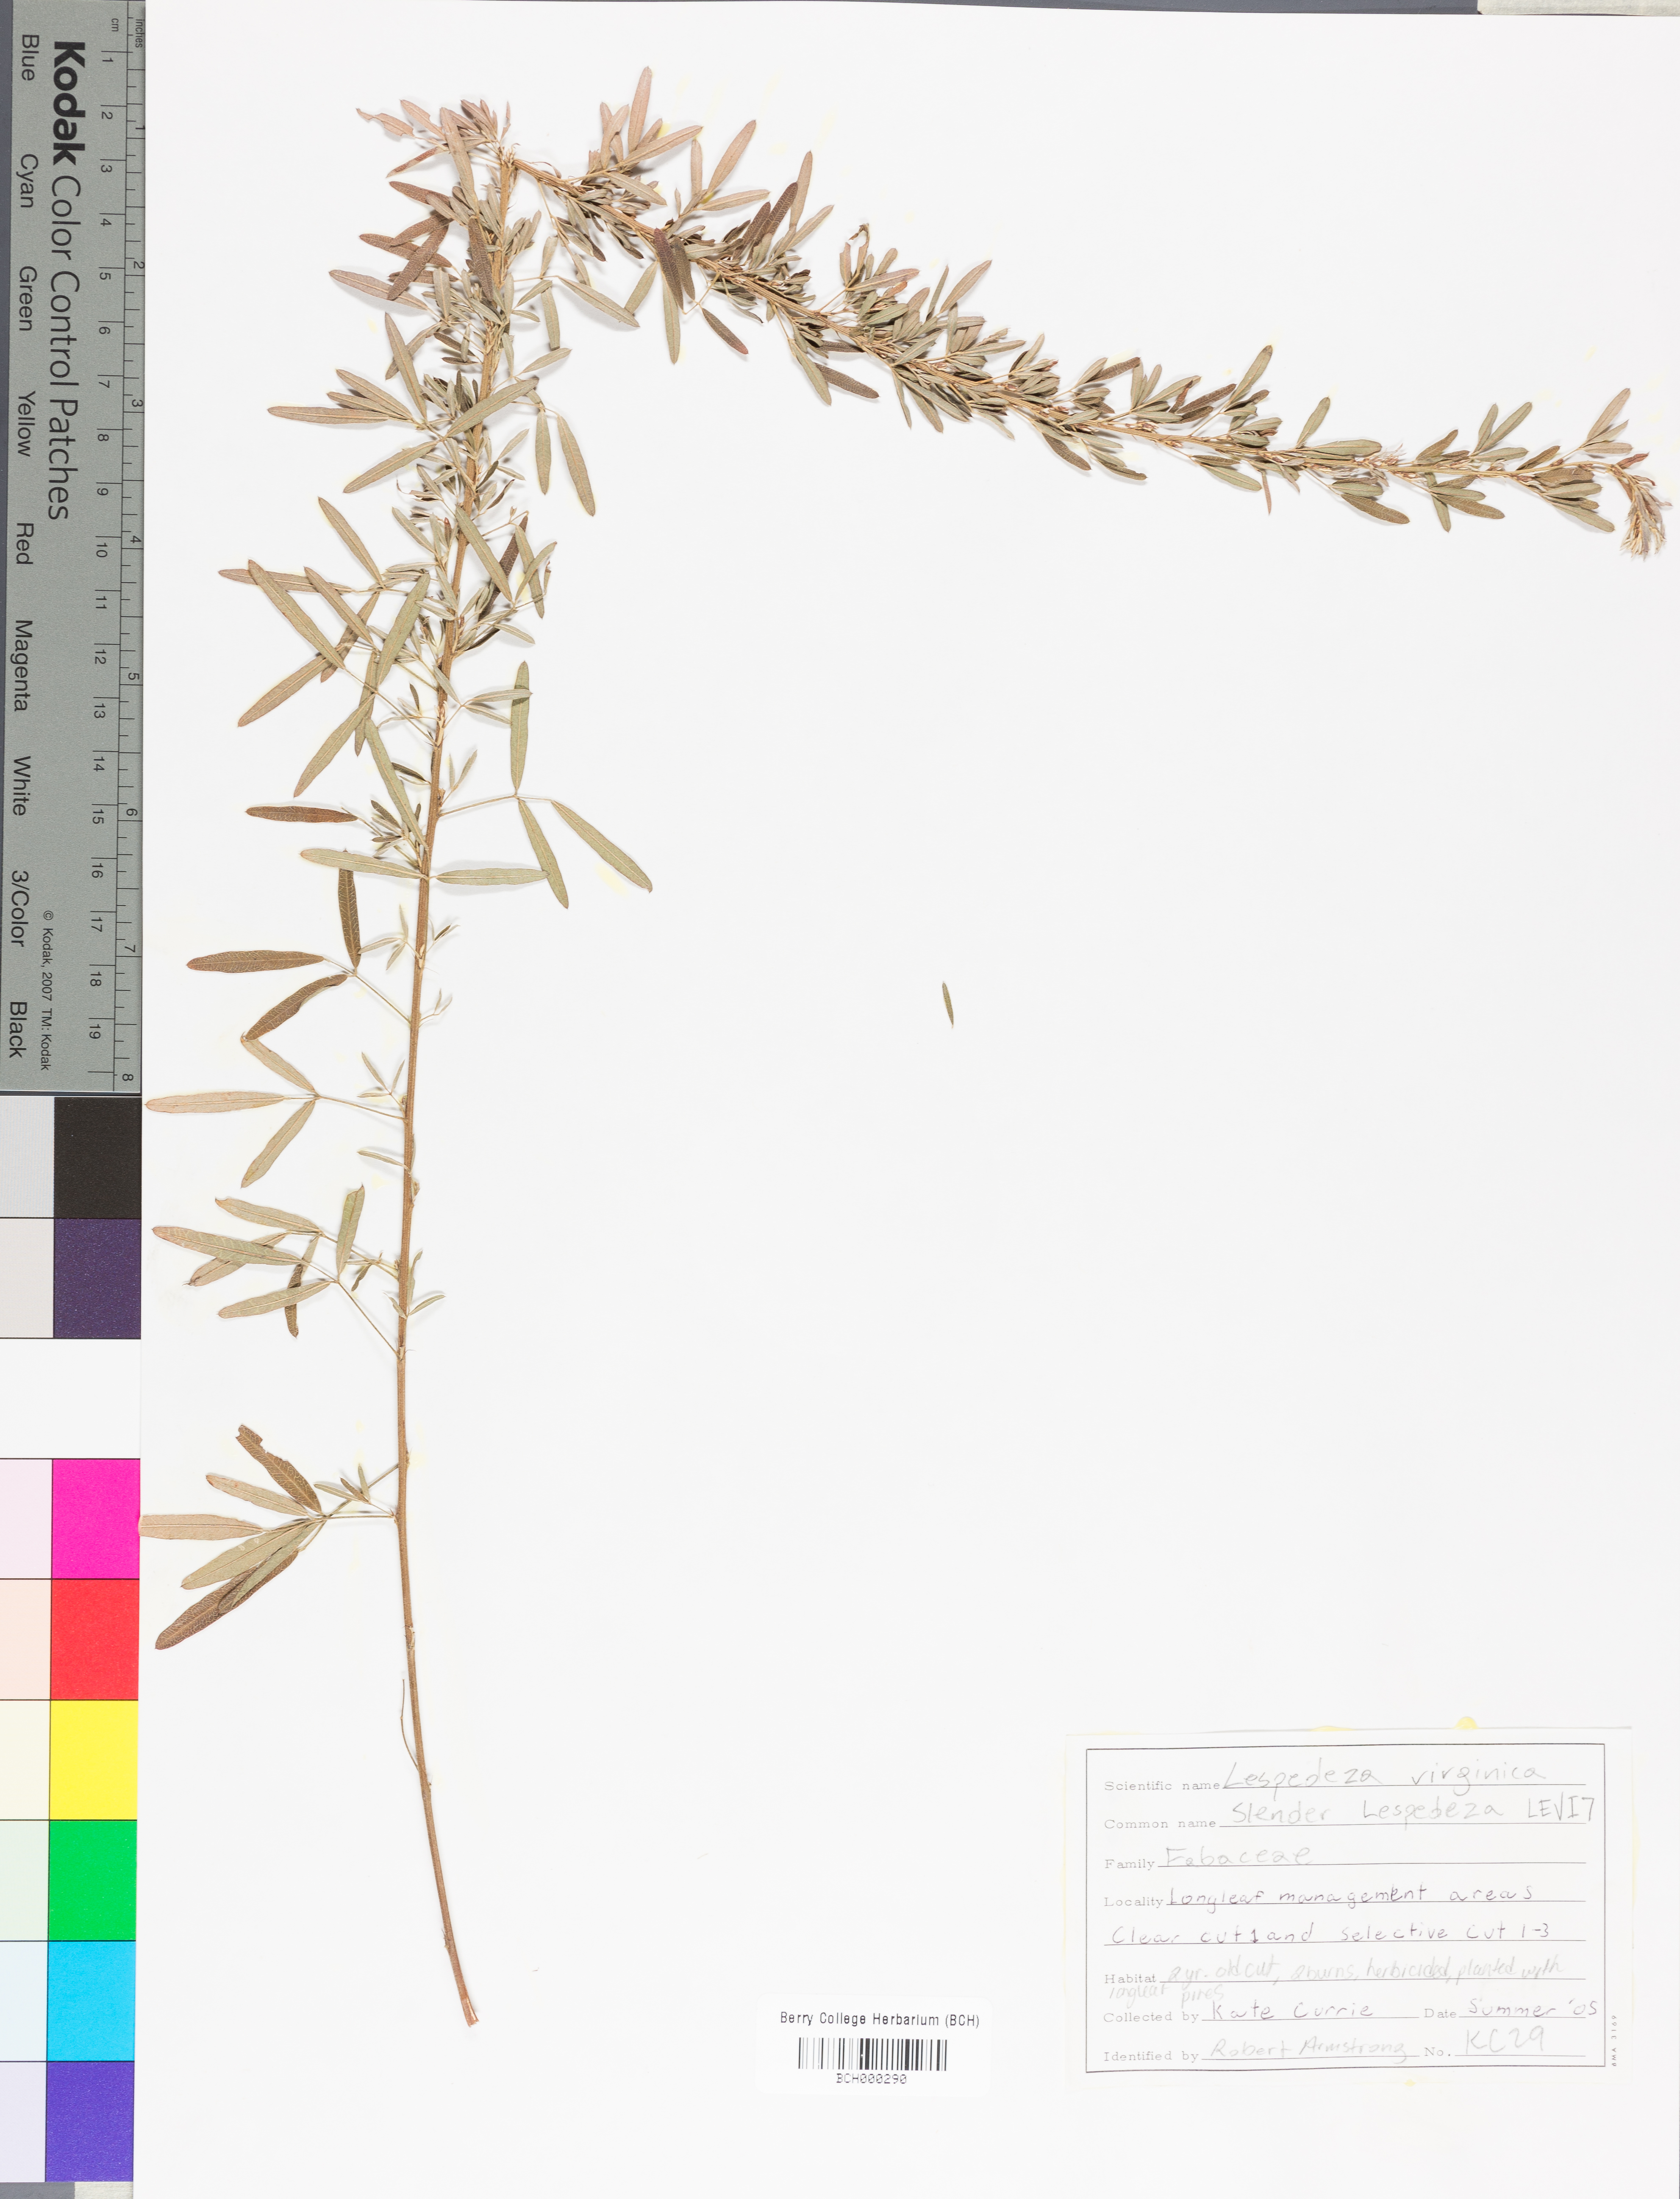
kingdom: Plantae
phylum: Tracheophyta
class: Magnoliopsida
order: Fabales
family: Fabaceae
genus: Lespedeza
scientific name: Lespedeza virginica
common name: Slender bush-clover
